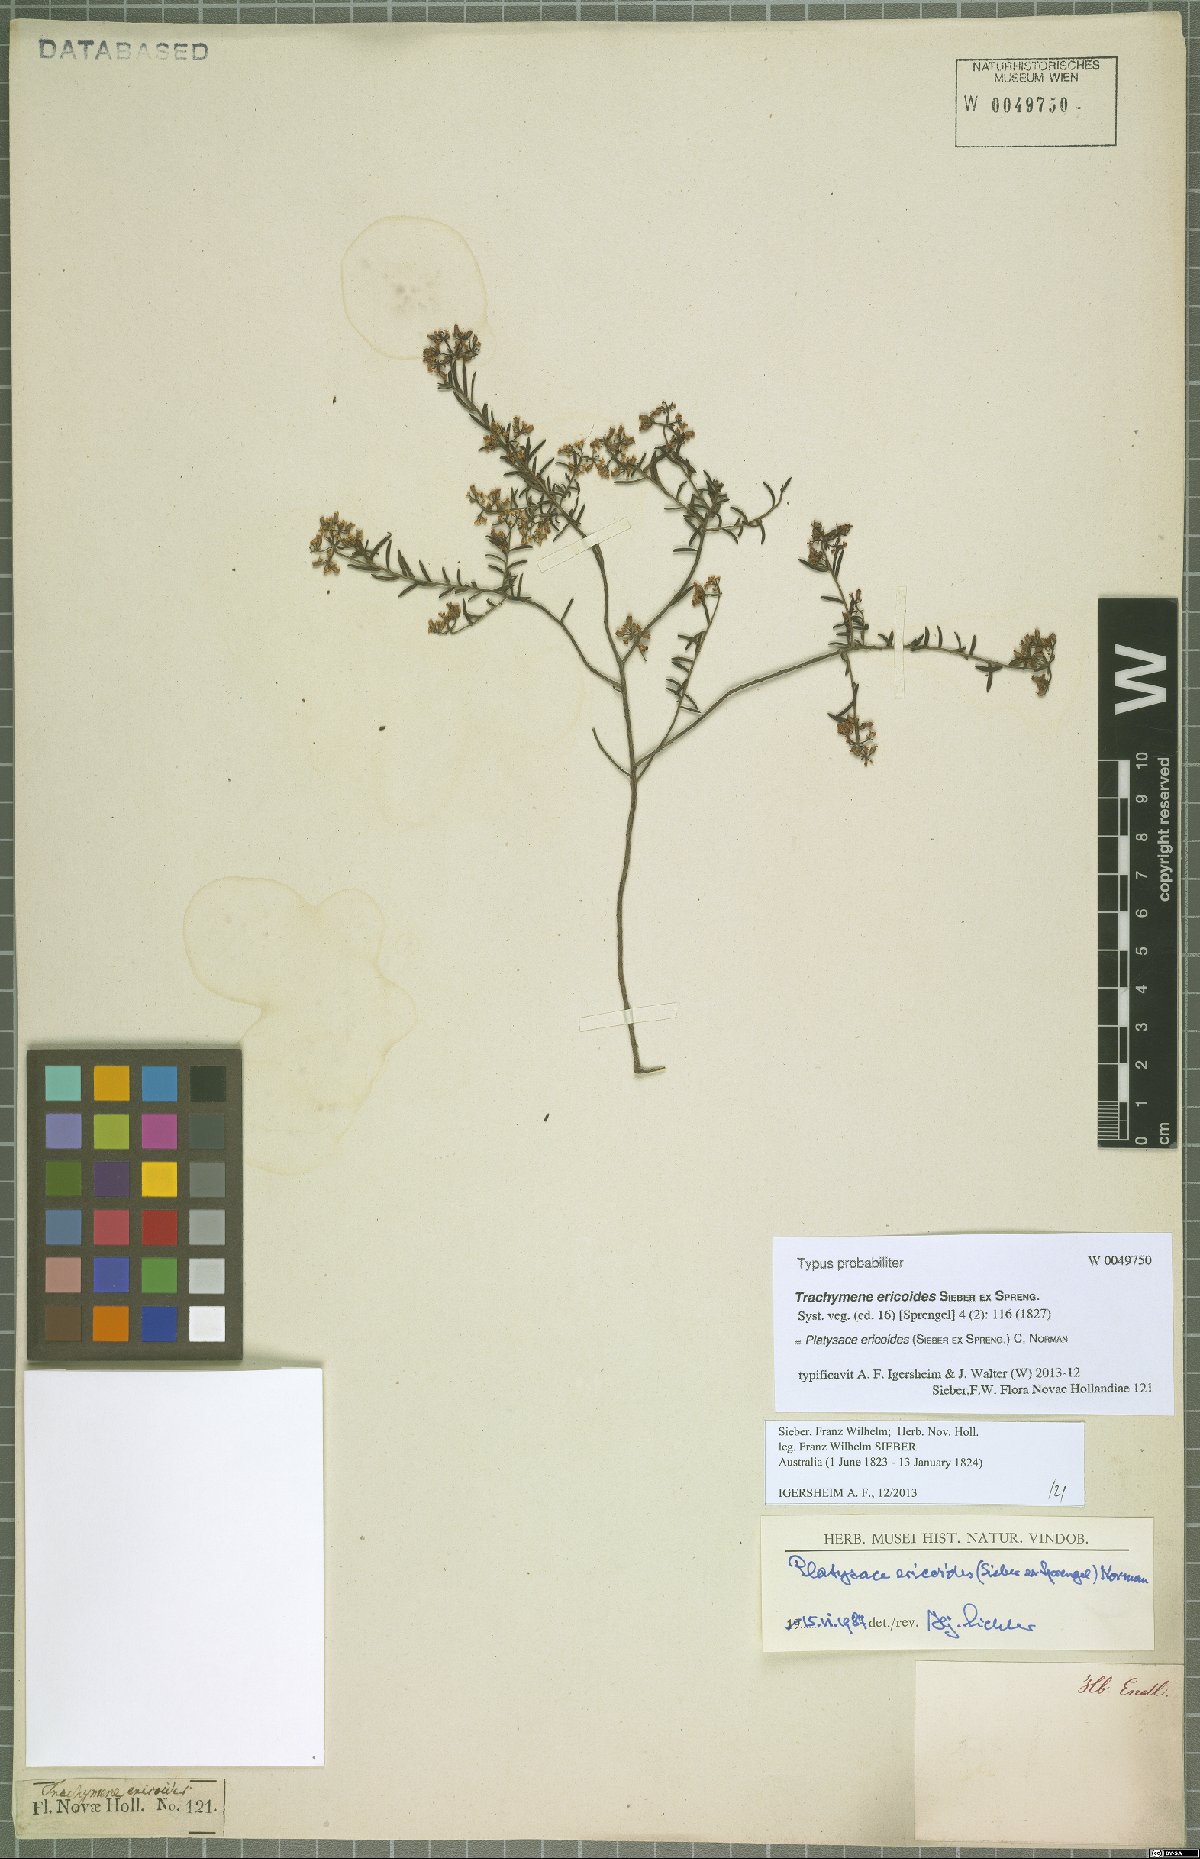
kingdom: Plantae
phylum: Tracheophyta
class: Magnoliopsida
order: Apiales
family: Apiaceae
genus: Platysace
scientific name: Platysace ericoides
